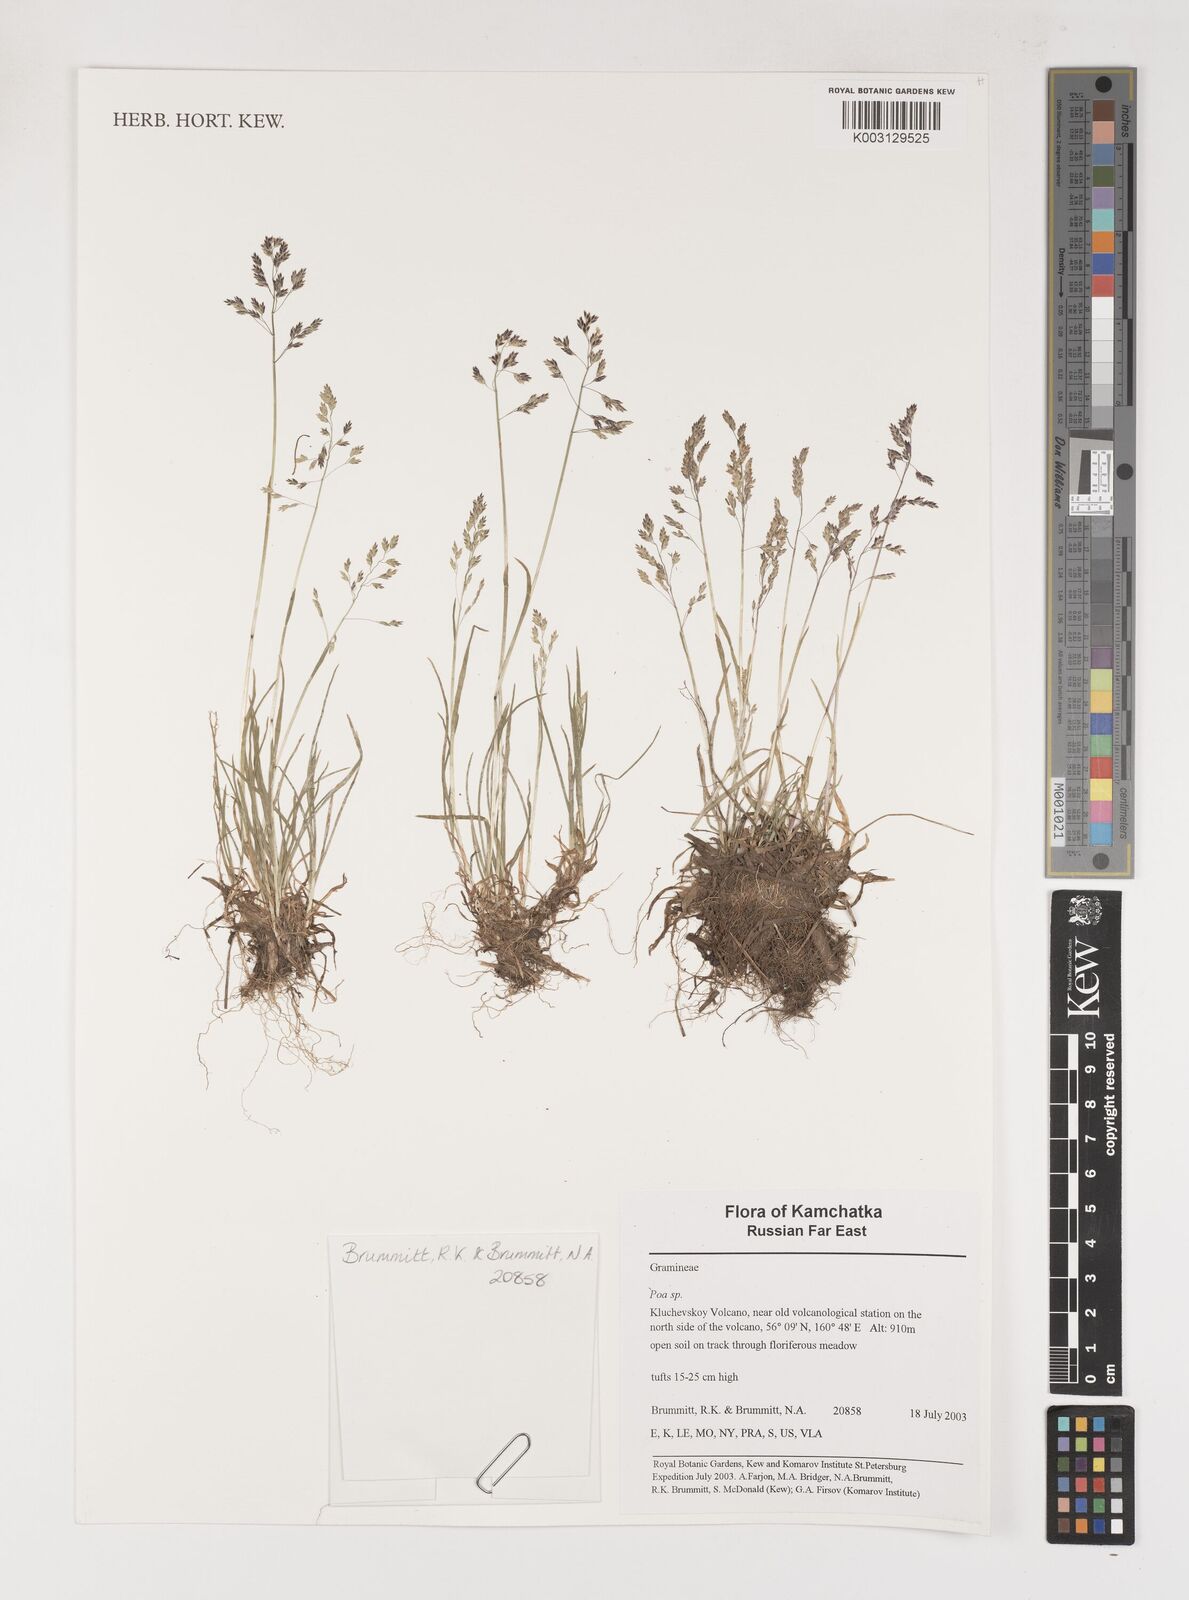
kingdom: Plantae
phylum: Tracheophyta
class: Liliopsida
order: Poales
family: Poaceae
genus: Poa
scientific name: Poa
